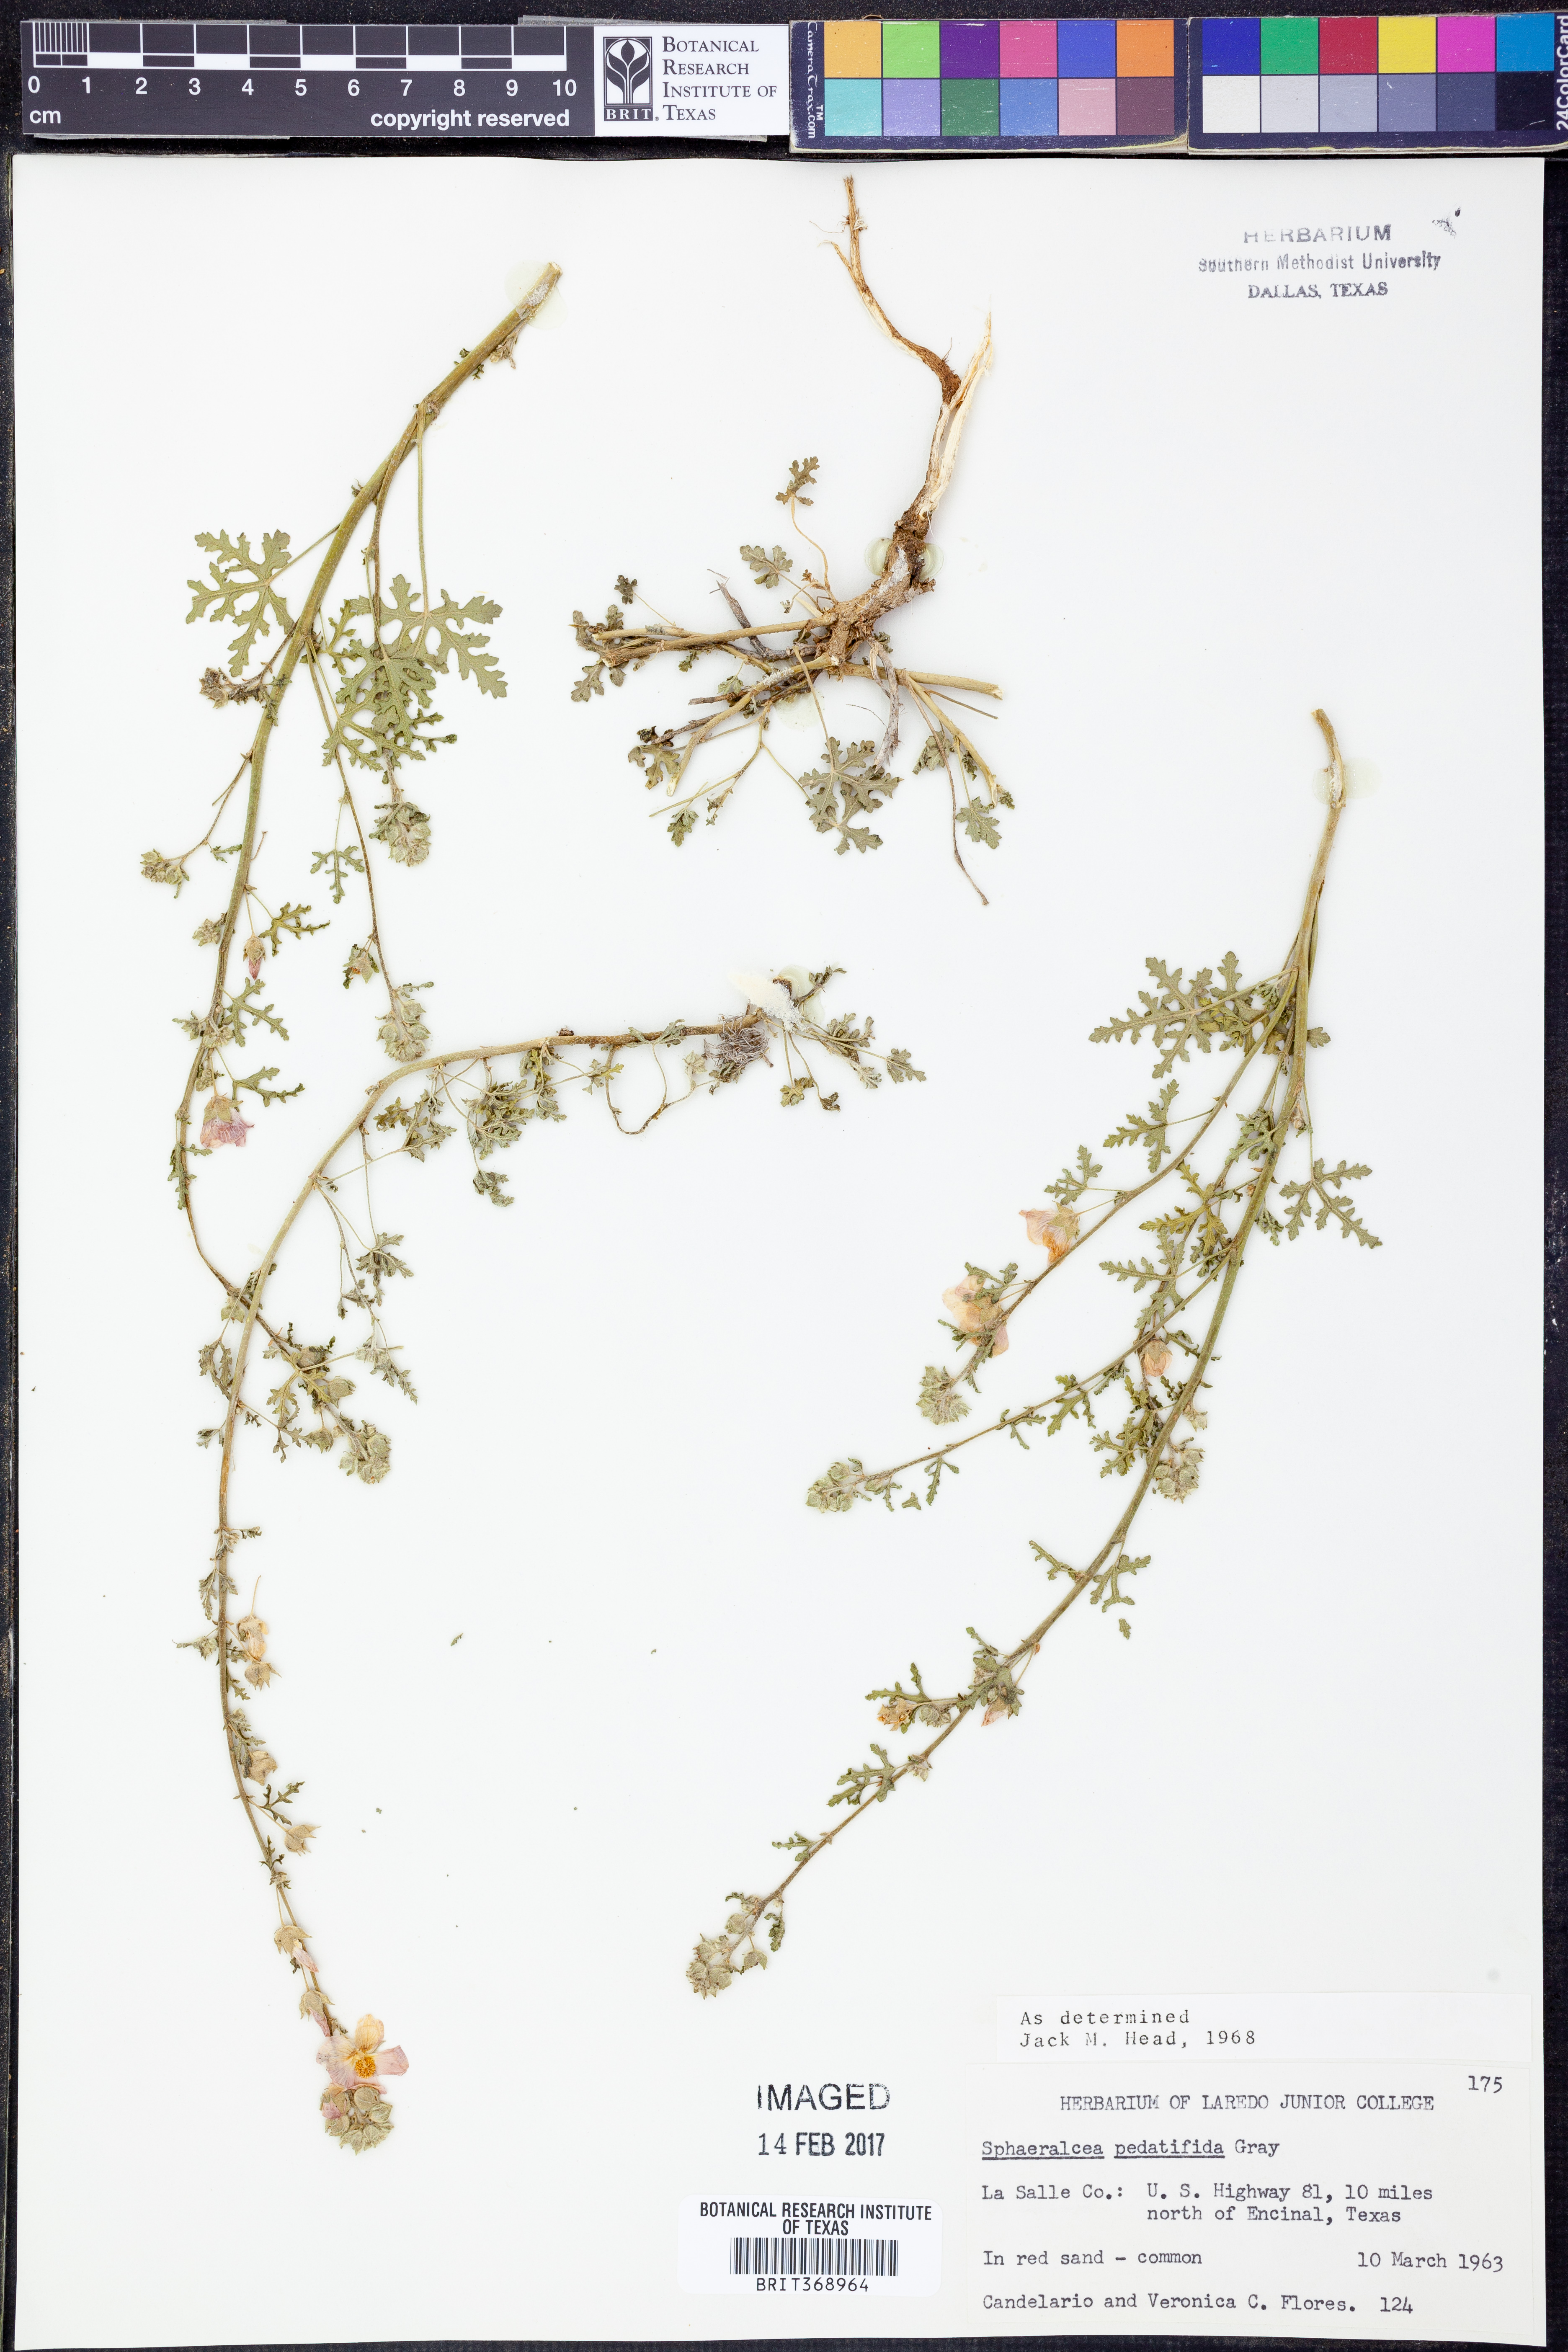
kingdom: Plantae
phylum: Tracheophyta
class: Magnoliopsida
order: Malvales
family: Malvaceae
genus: Sphaeralcea
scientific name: Sphaeralcea pedatifida
